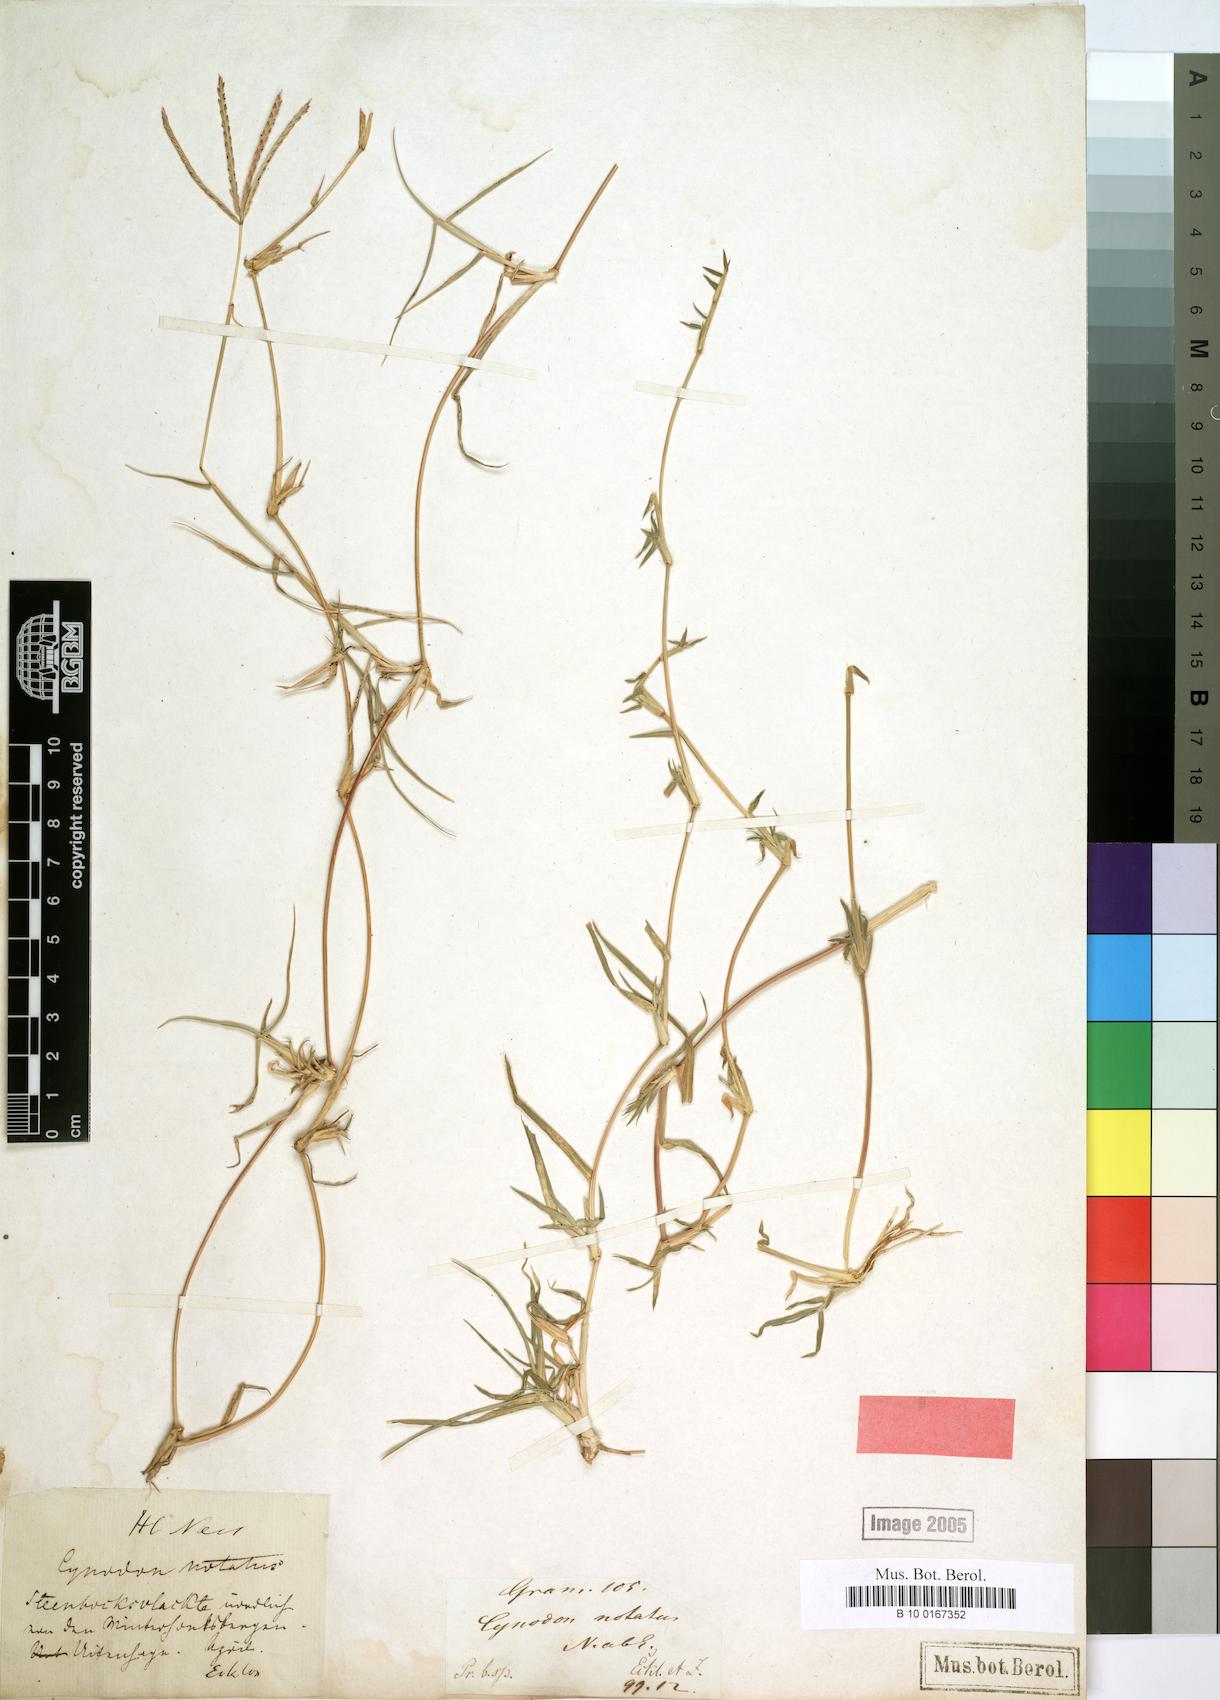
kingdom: Plantae
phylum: Tracheophyta
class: Liliopsida
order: Poales
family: Poaceae
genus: Cynodon
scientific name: Cynodon incompletus
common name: African bermuda-grass
